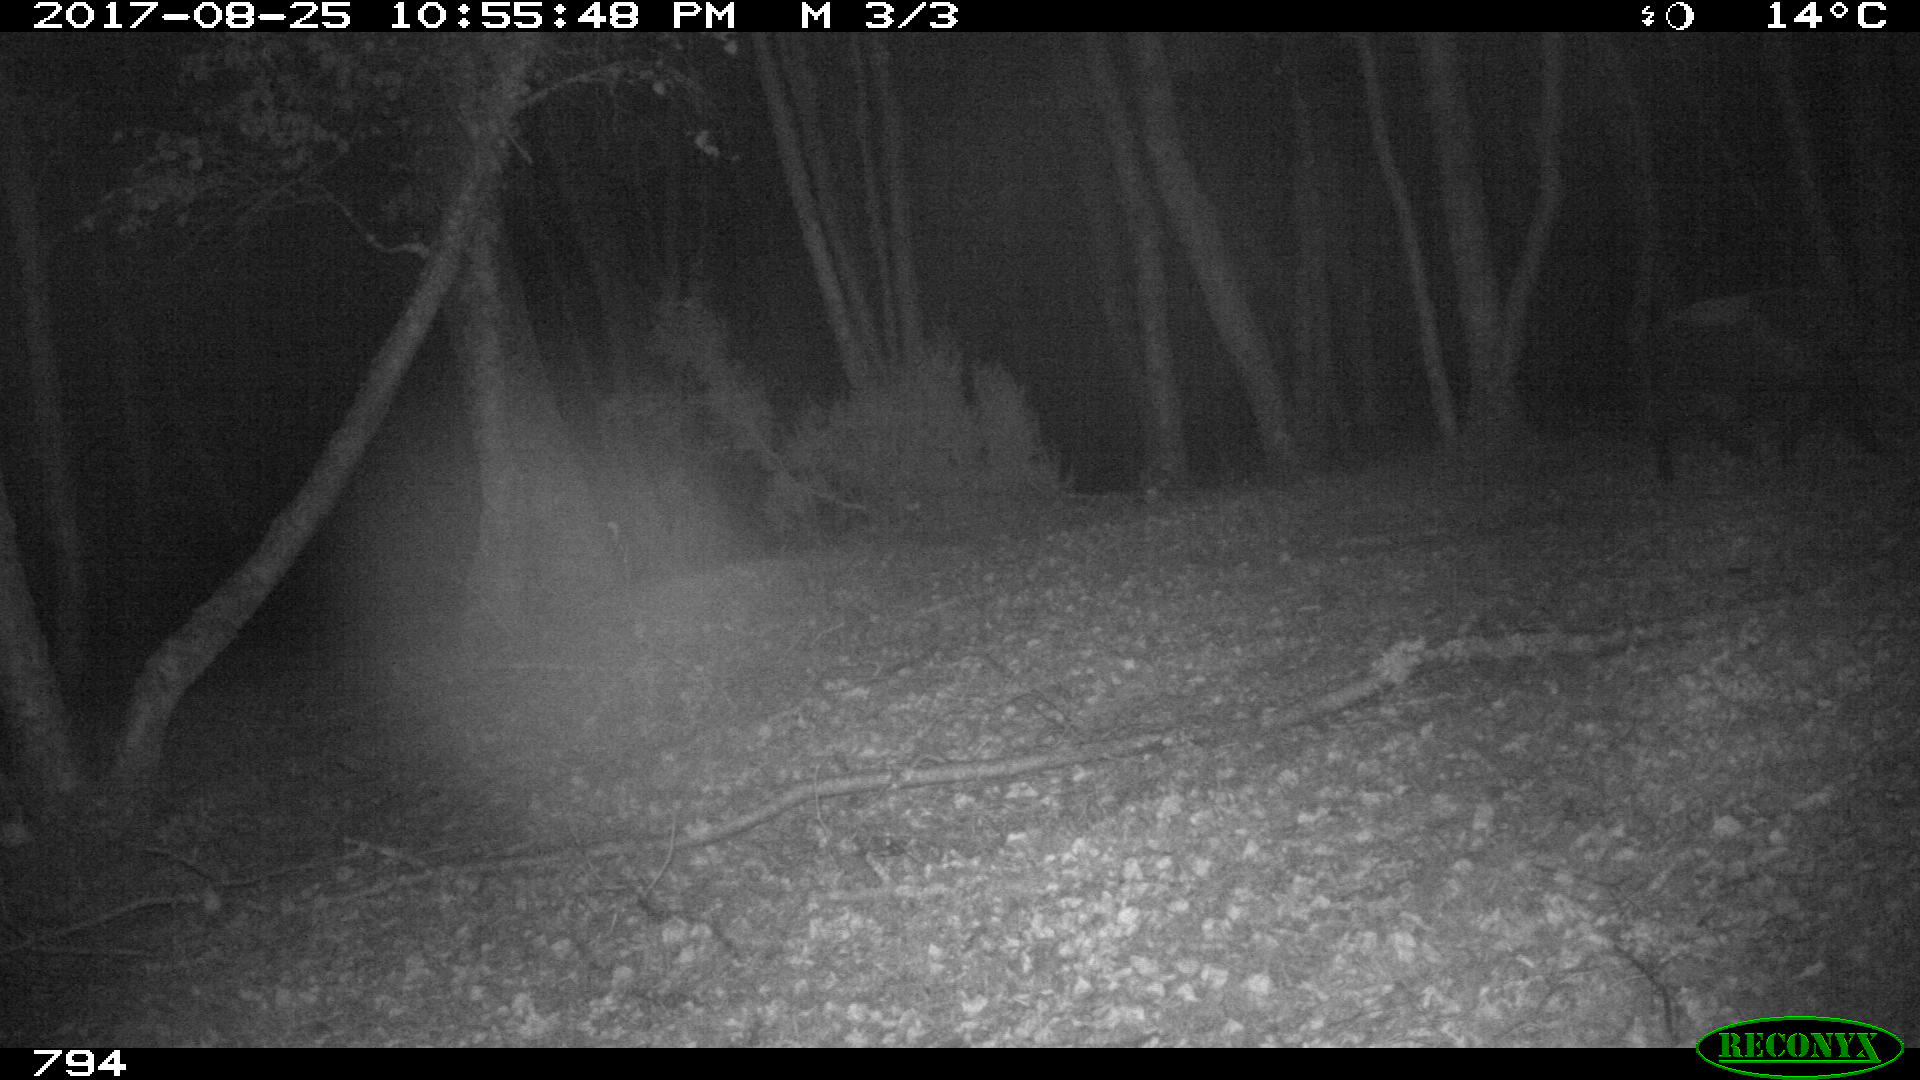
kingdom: Animalia
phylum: Chordata
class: Mammalia
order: Artiodactyla
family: Suidae
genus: Sus
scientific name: Sus scrofa
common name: Wild boar
